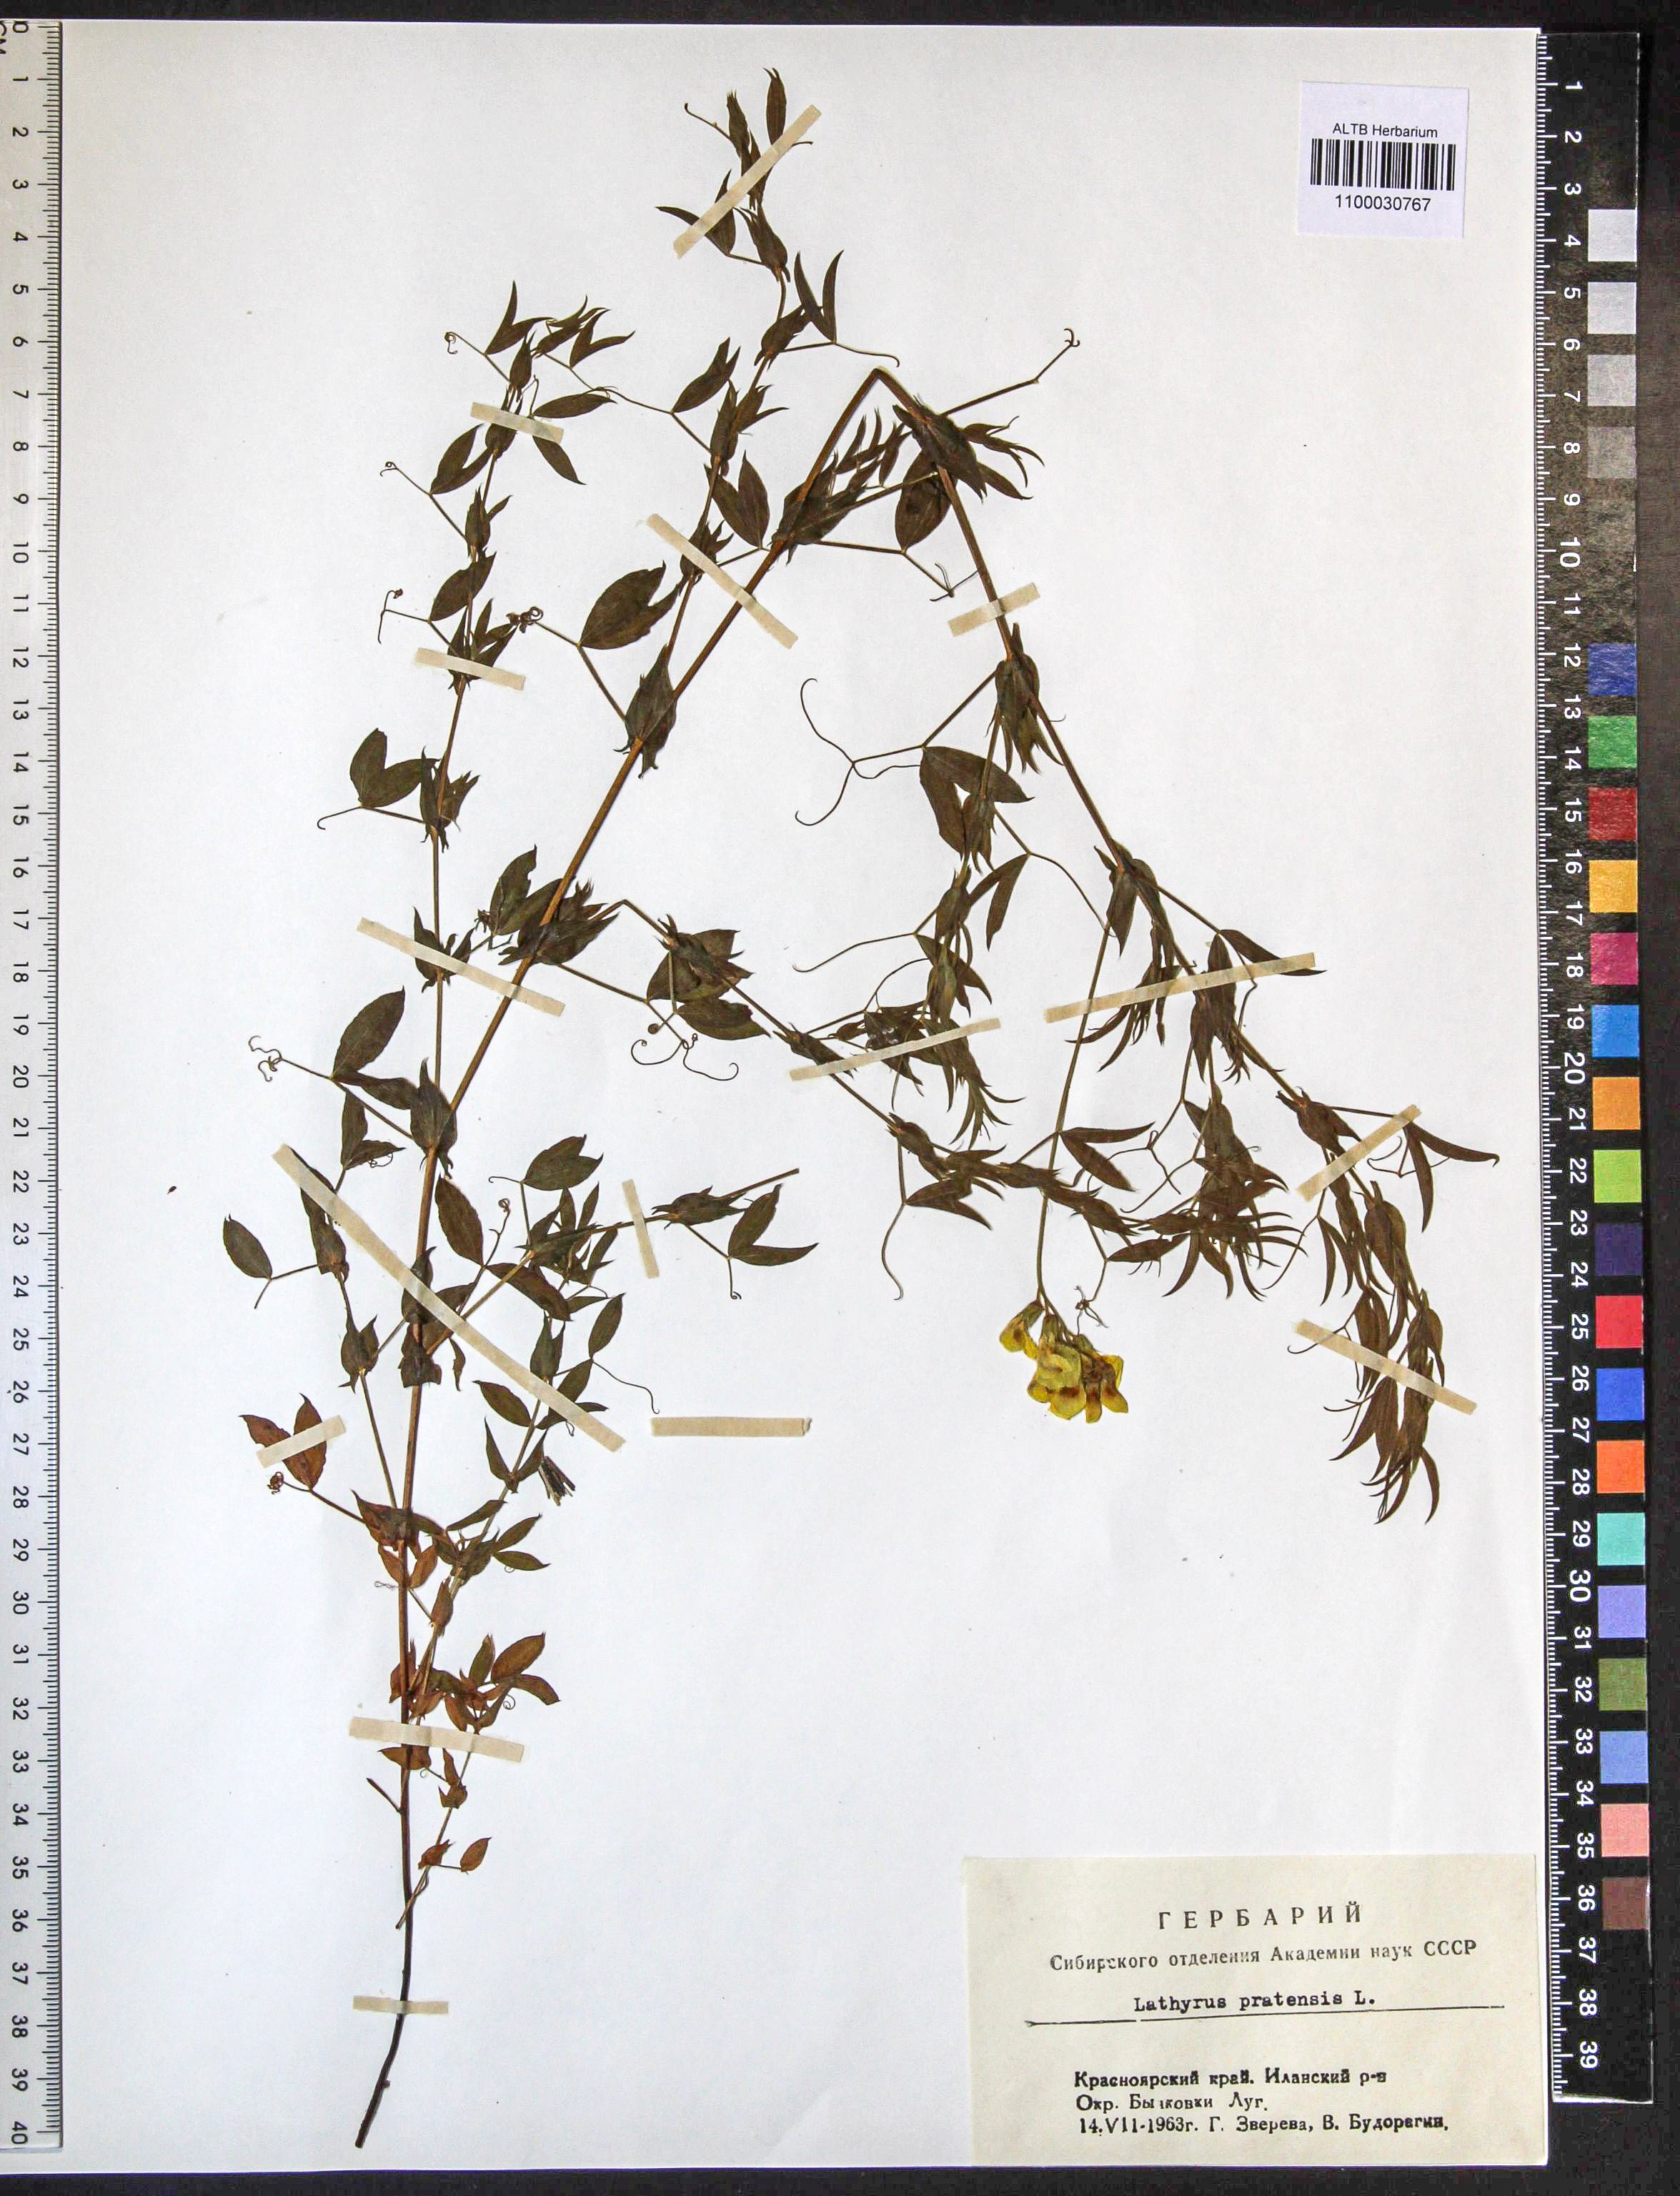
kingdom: Plantae
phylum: Tracheophyta
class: Magnoliopsida
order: Fabales
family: Fabaceae
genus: Lathyrus
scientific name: Lathyrus pratensis
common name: Meadow vetchling
